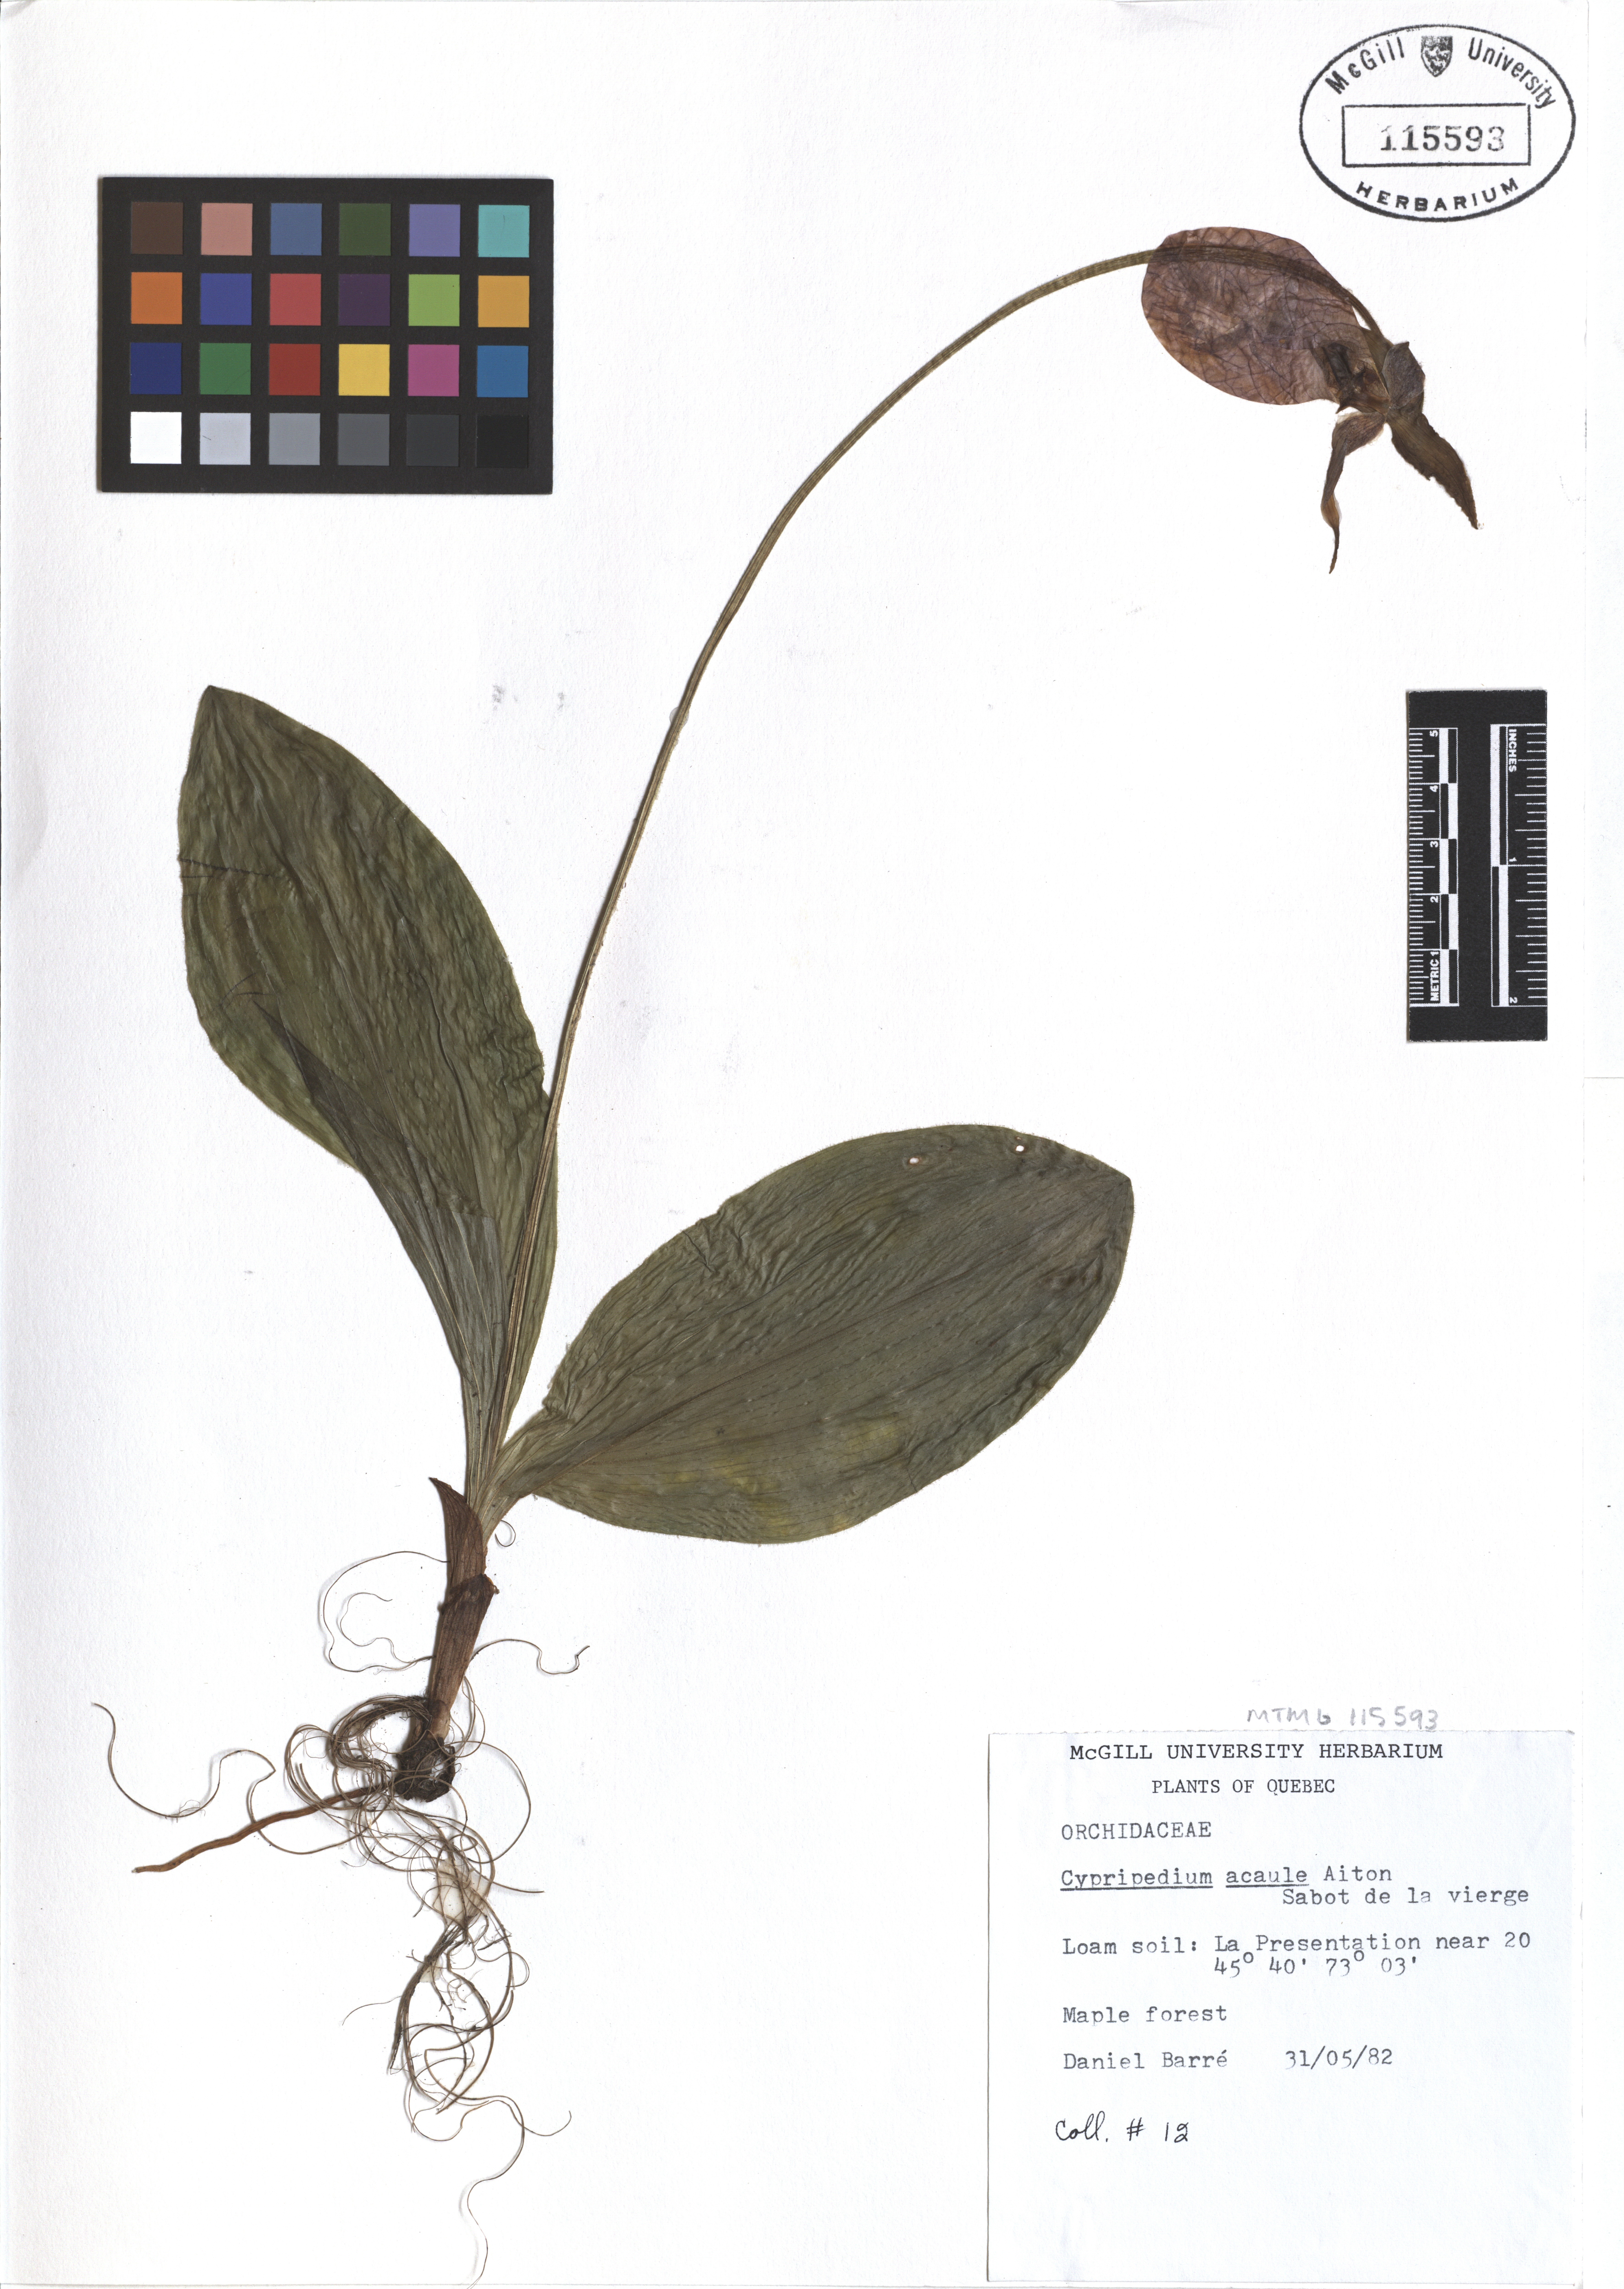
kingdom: Plantae
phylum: Tracheophyta
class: Liliopsida
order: Asparagales
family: Orchidaceae
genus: Cypripedium
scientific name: Cypripedium acaule
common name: Pink lady's-slipper
